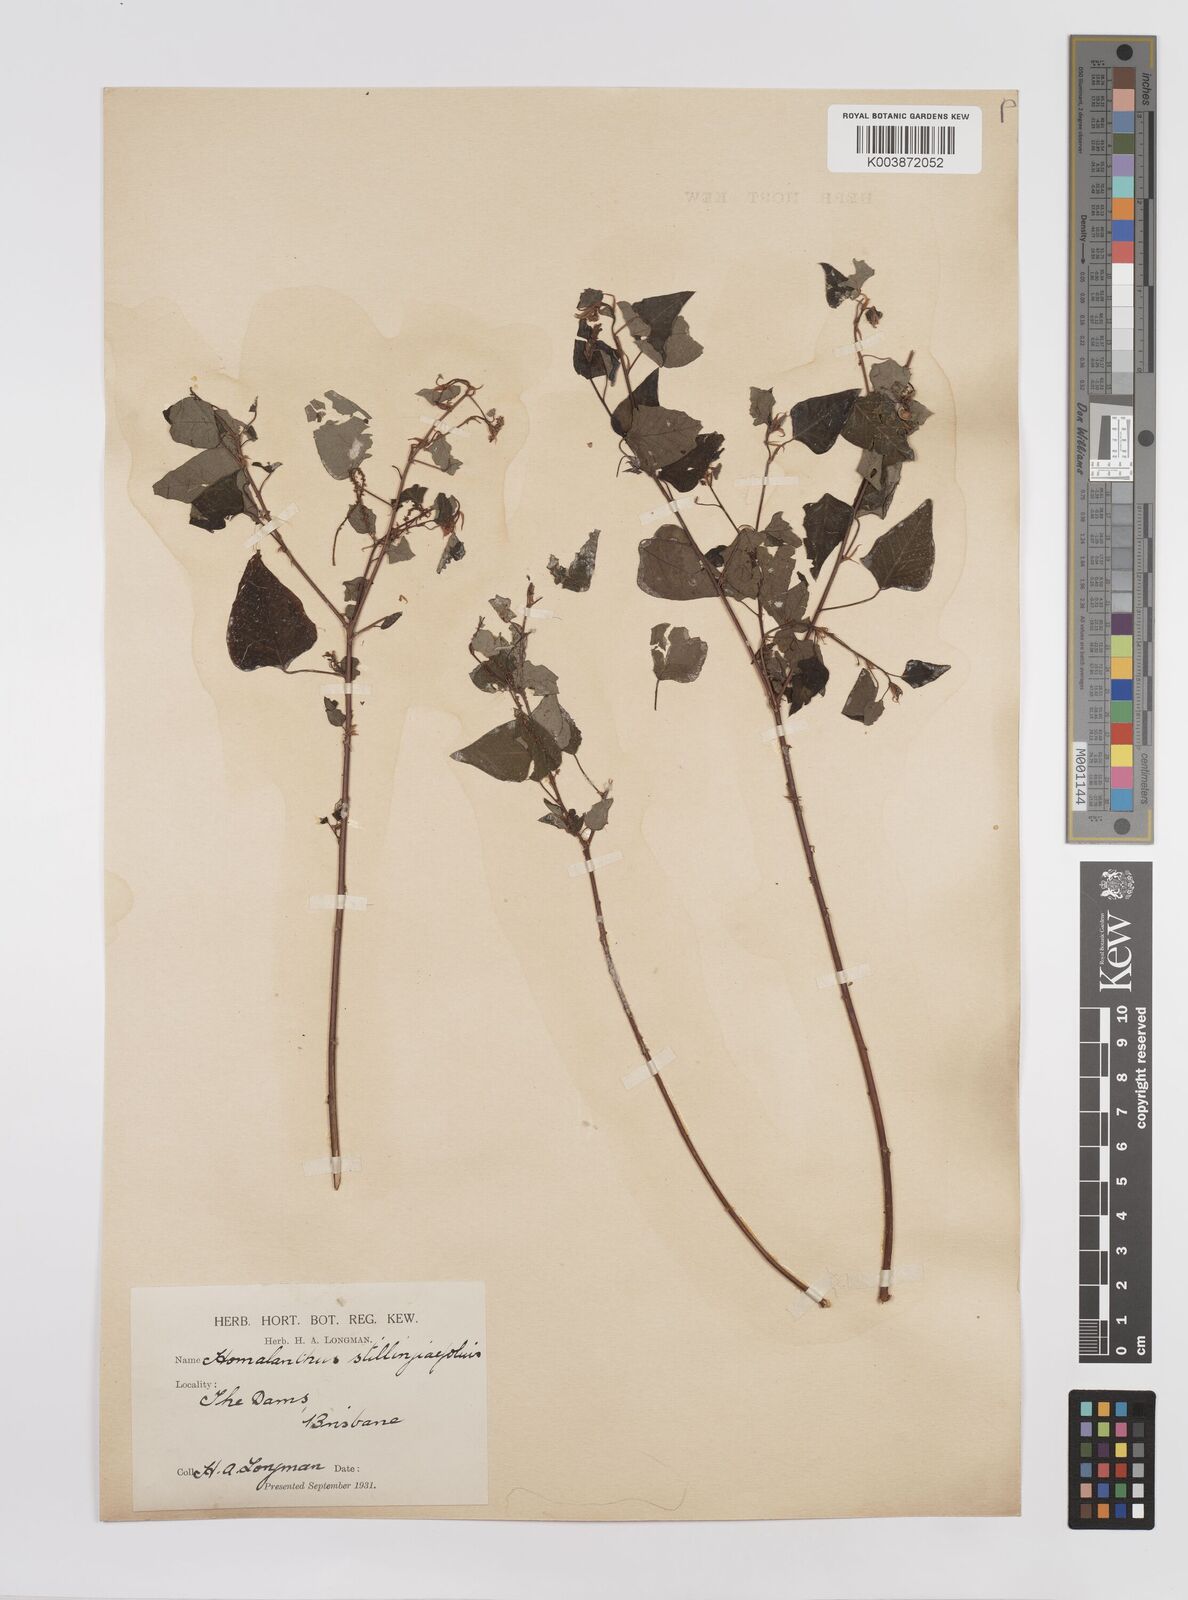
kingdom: Plantae
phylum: Tracheophyta
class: Magnoliopsida
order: Malpighiales
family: Euphorbiaceae
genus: Homalanthus
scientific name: Homalanthus stillingifolius
